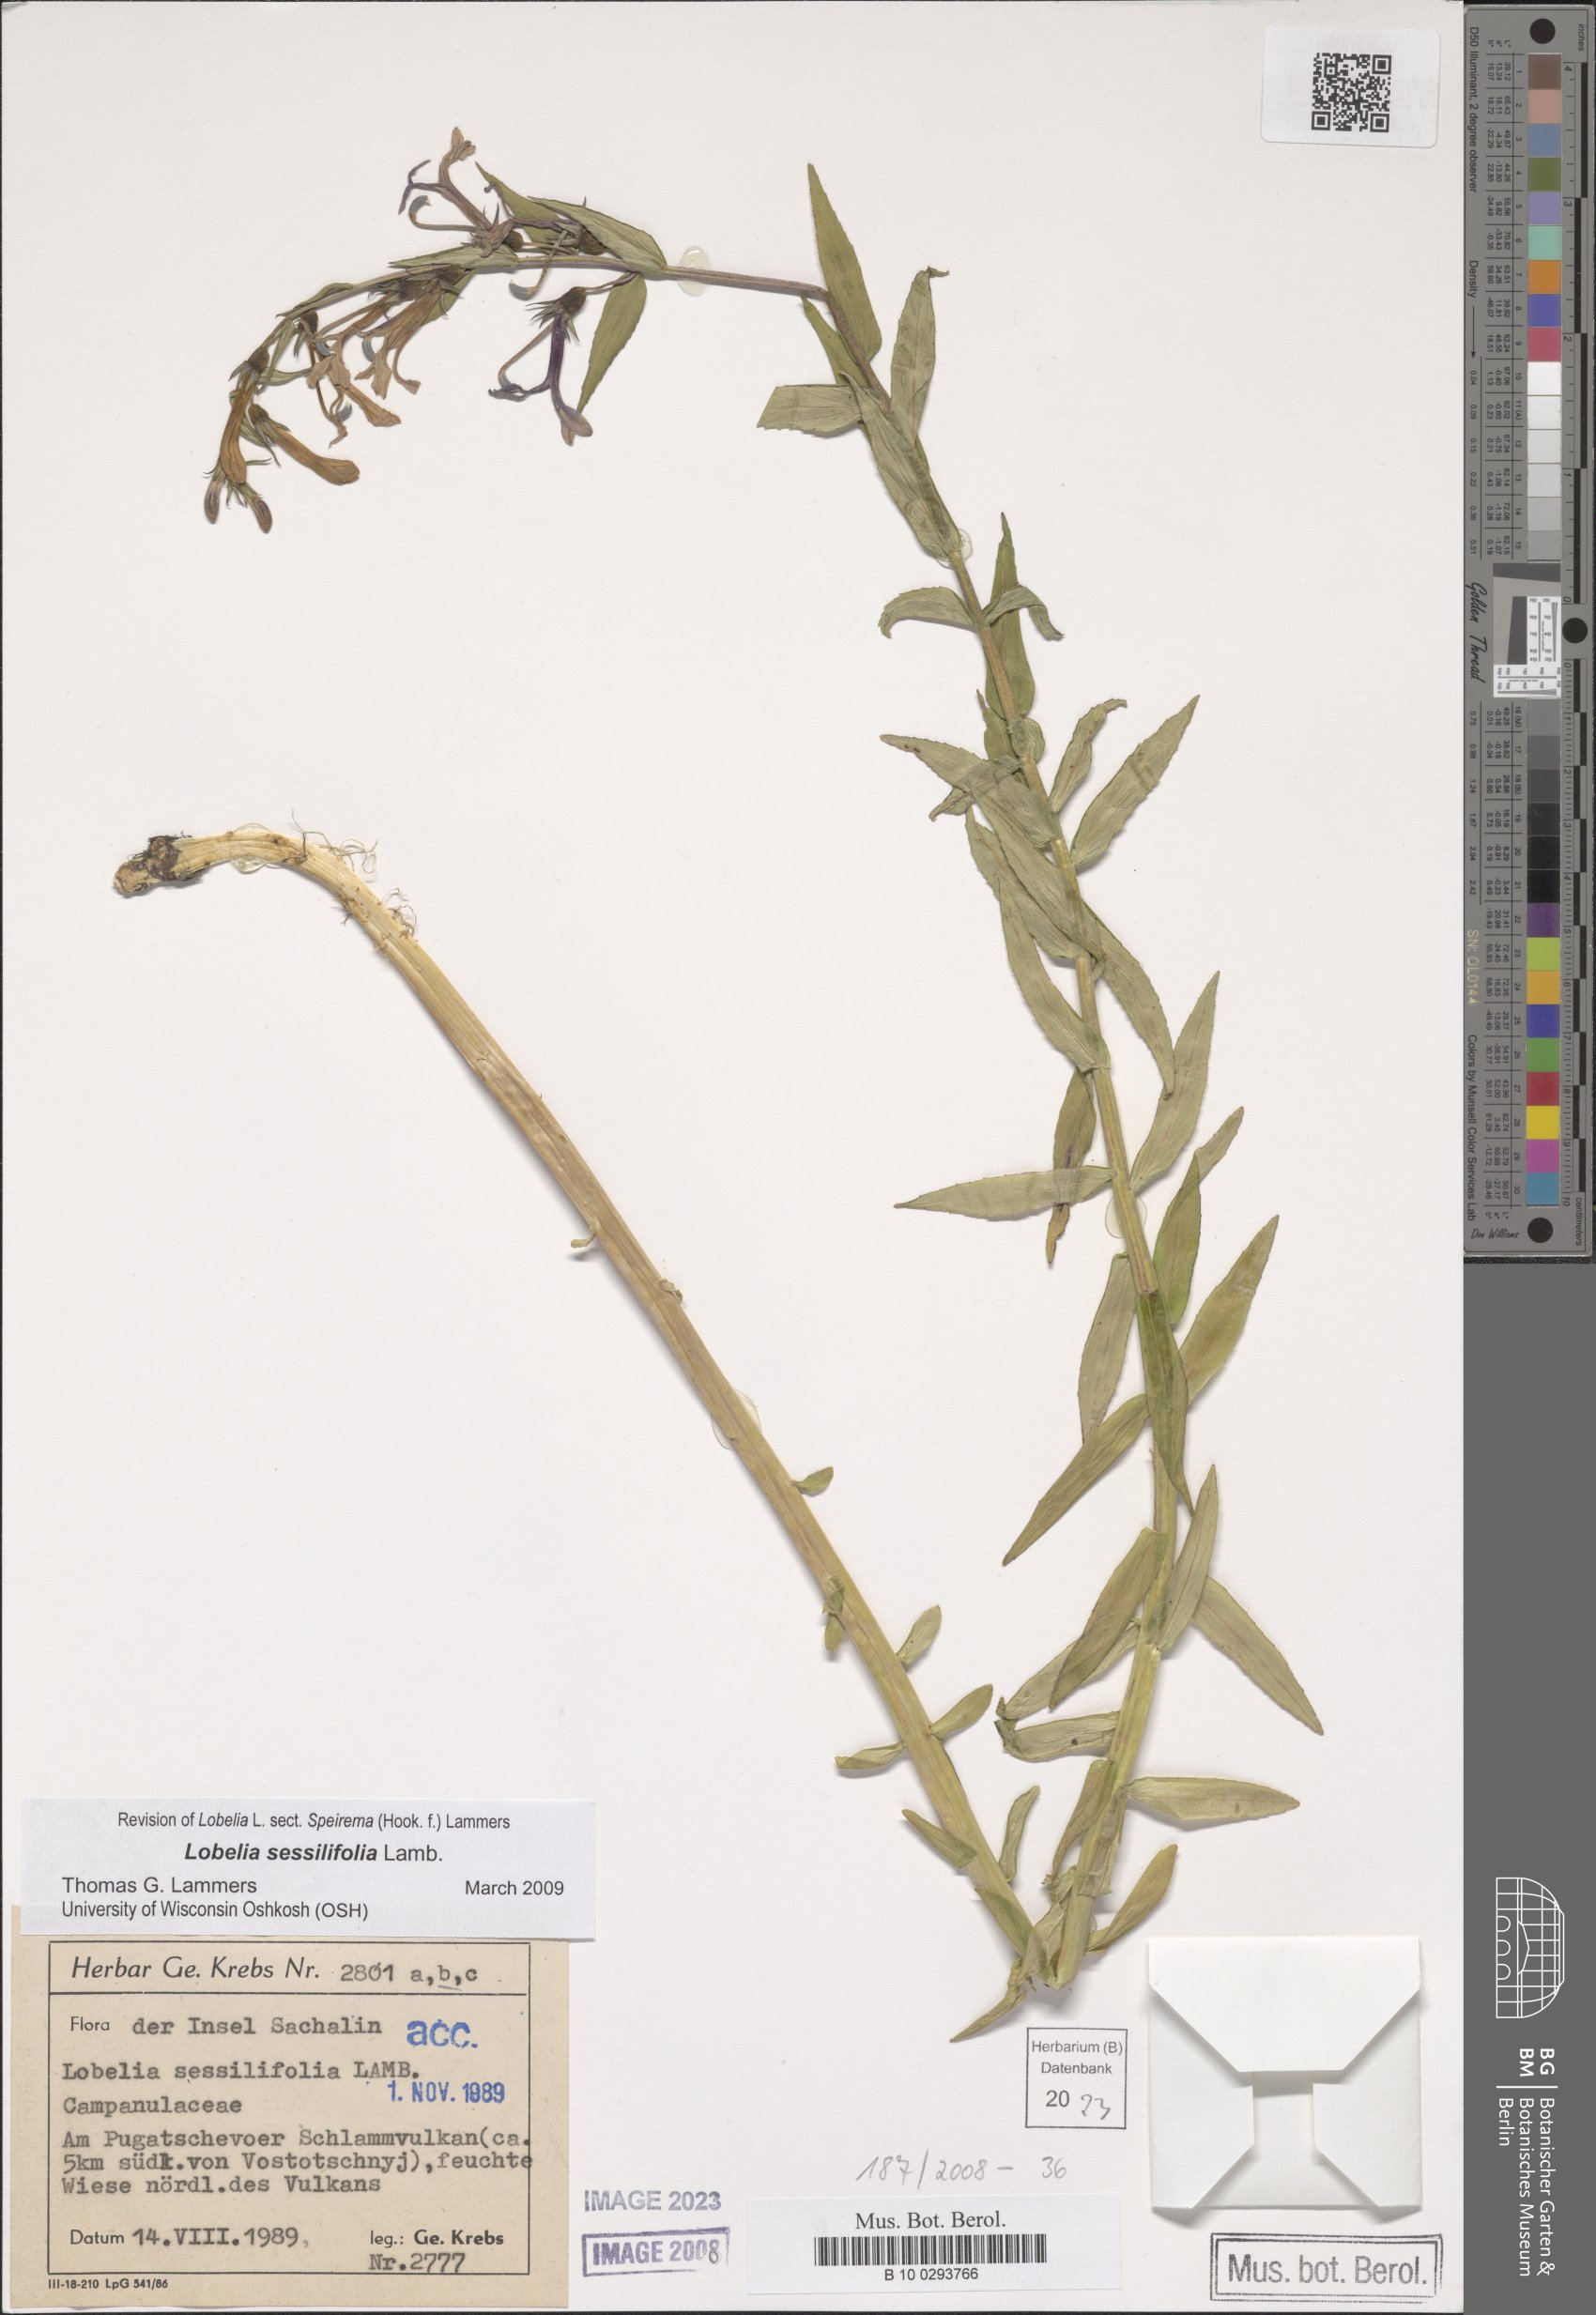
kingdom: Plantae
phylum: Tracheophyta
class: Magnoliopsida
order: Asterales
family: Campanulaceae
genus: Lobelia
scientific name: Lobelia sessilifolia
